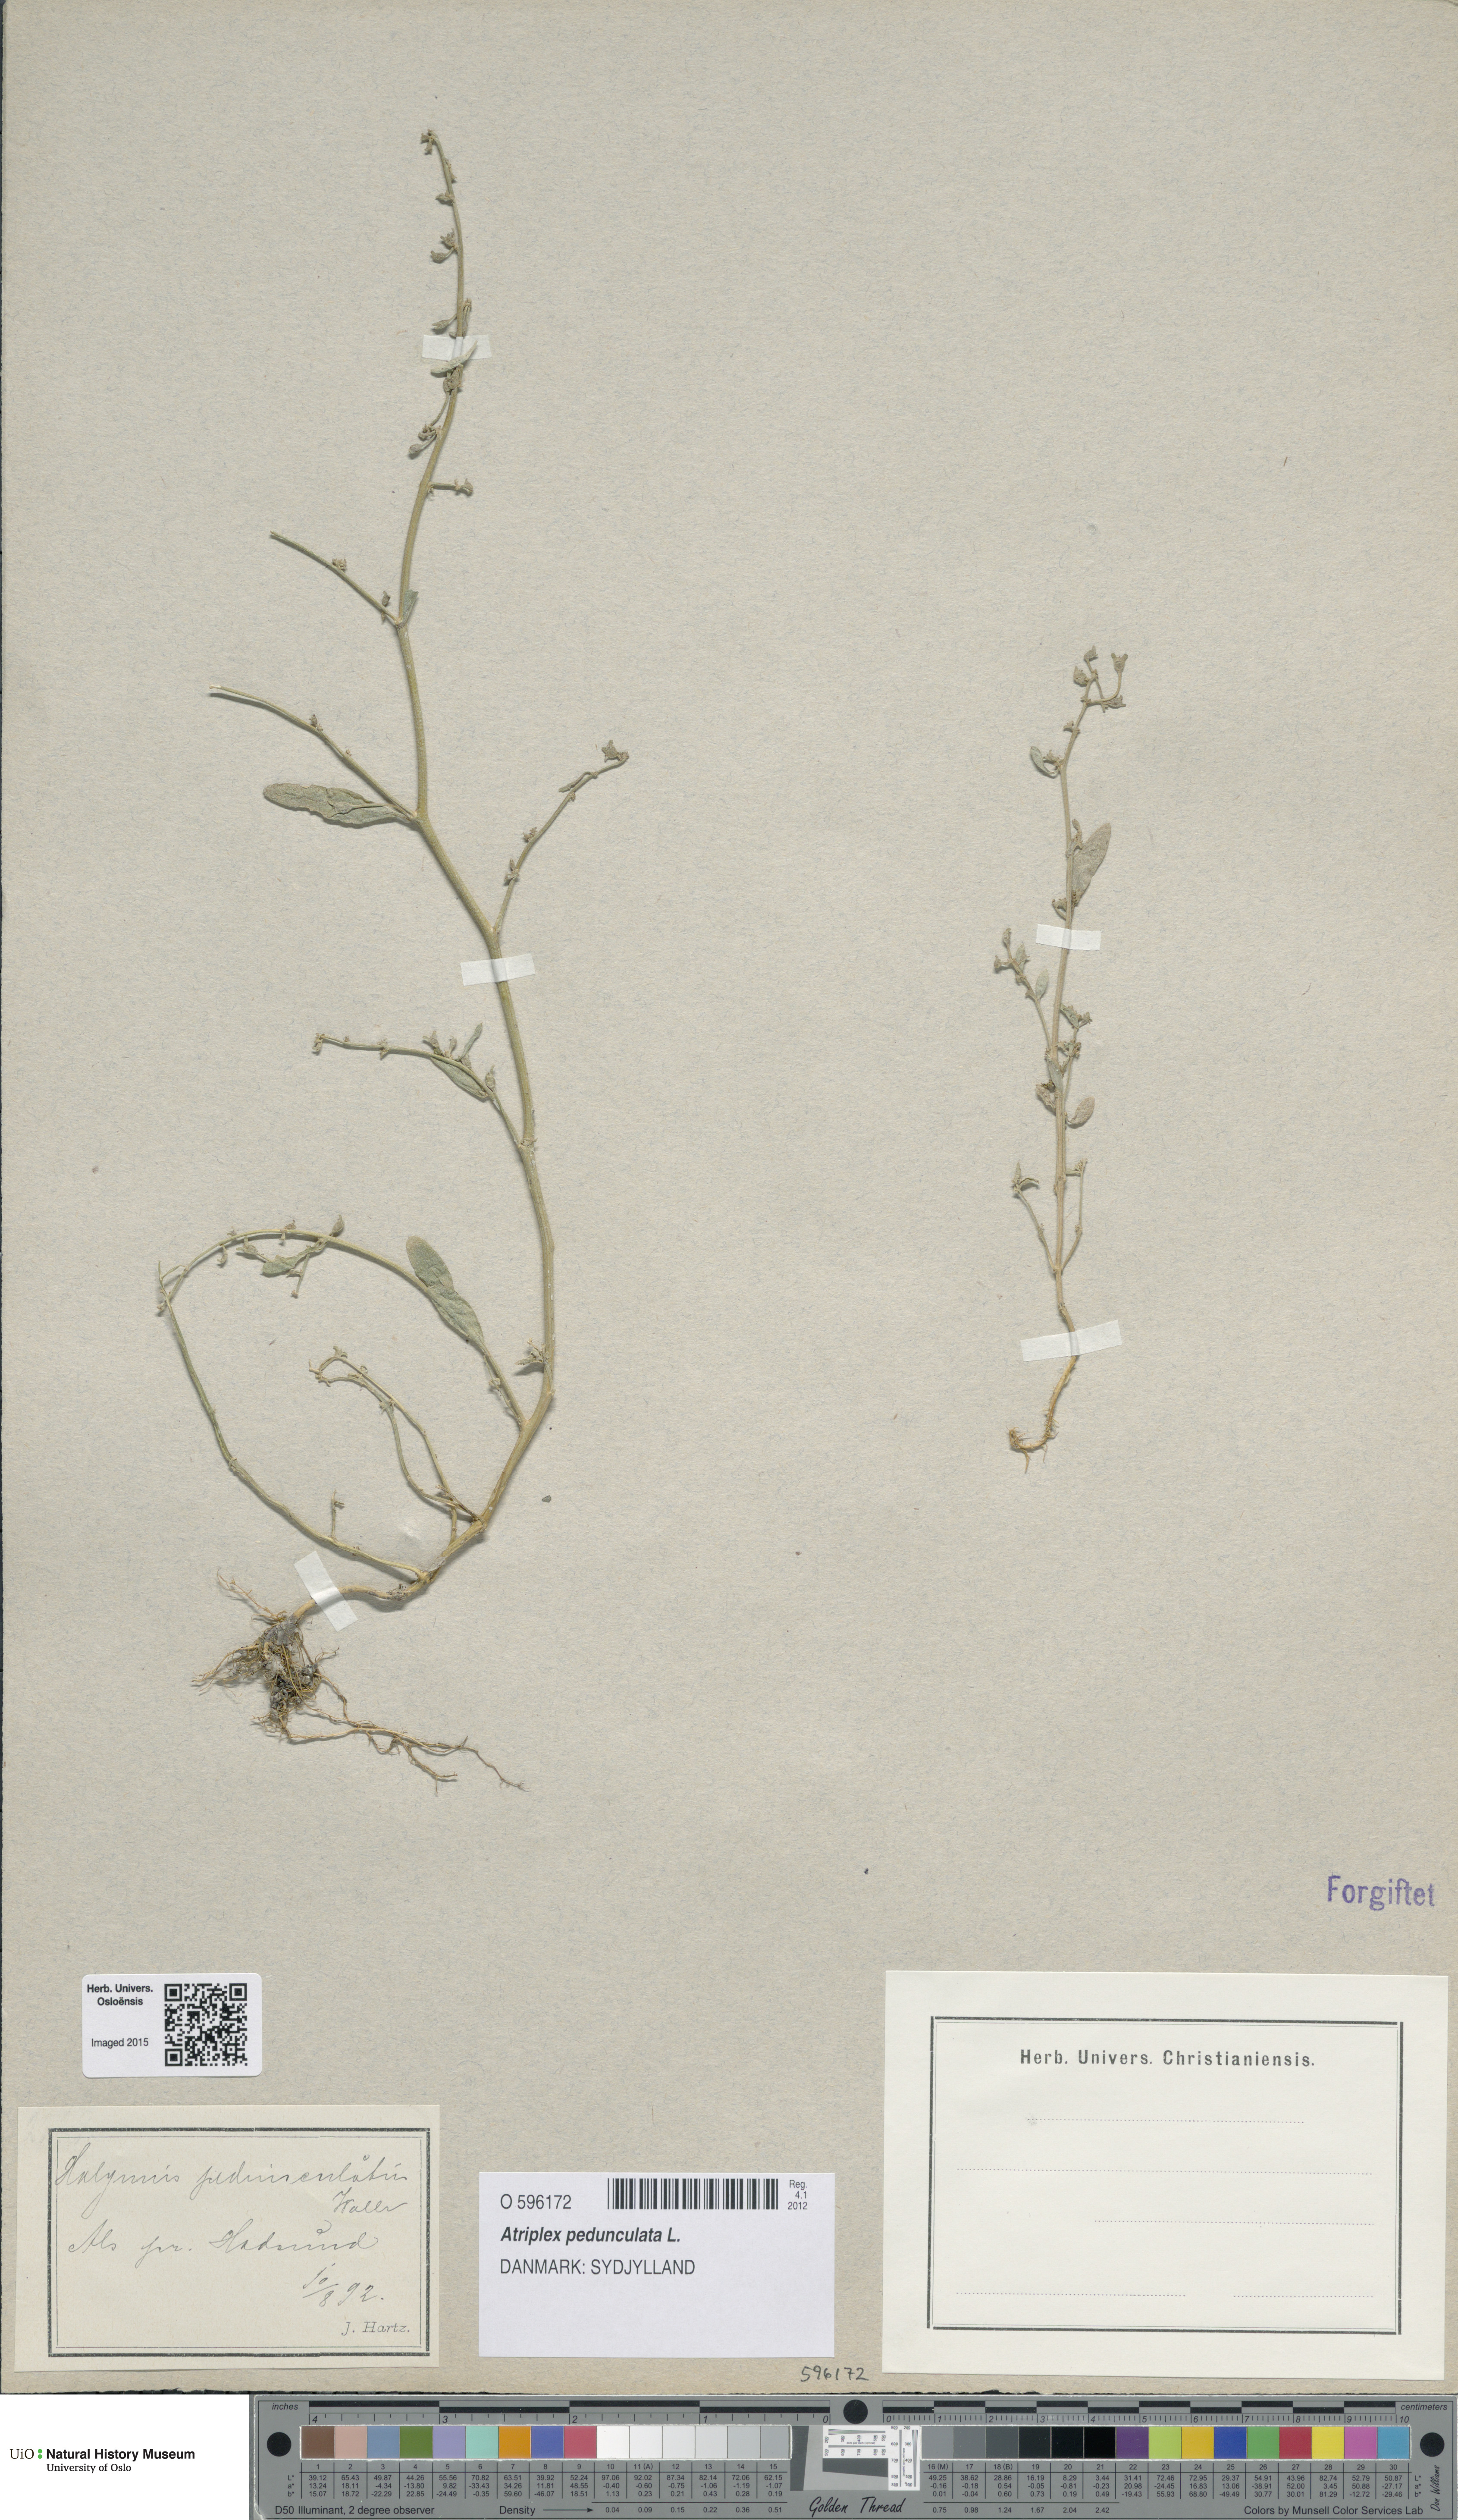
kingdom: Plantae
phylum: Tracheophyta
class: Magnoliopsida
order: Caryophyllales
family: Amaranthaceae
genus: Halimione
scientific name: Halimione pedunculata
